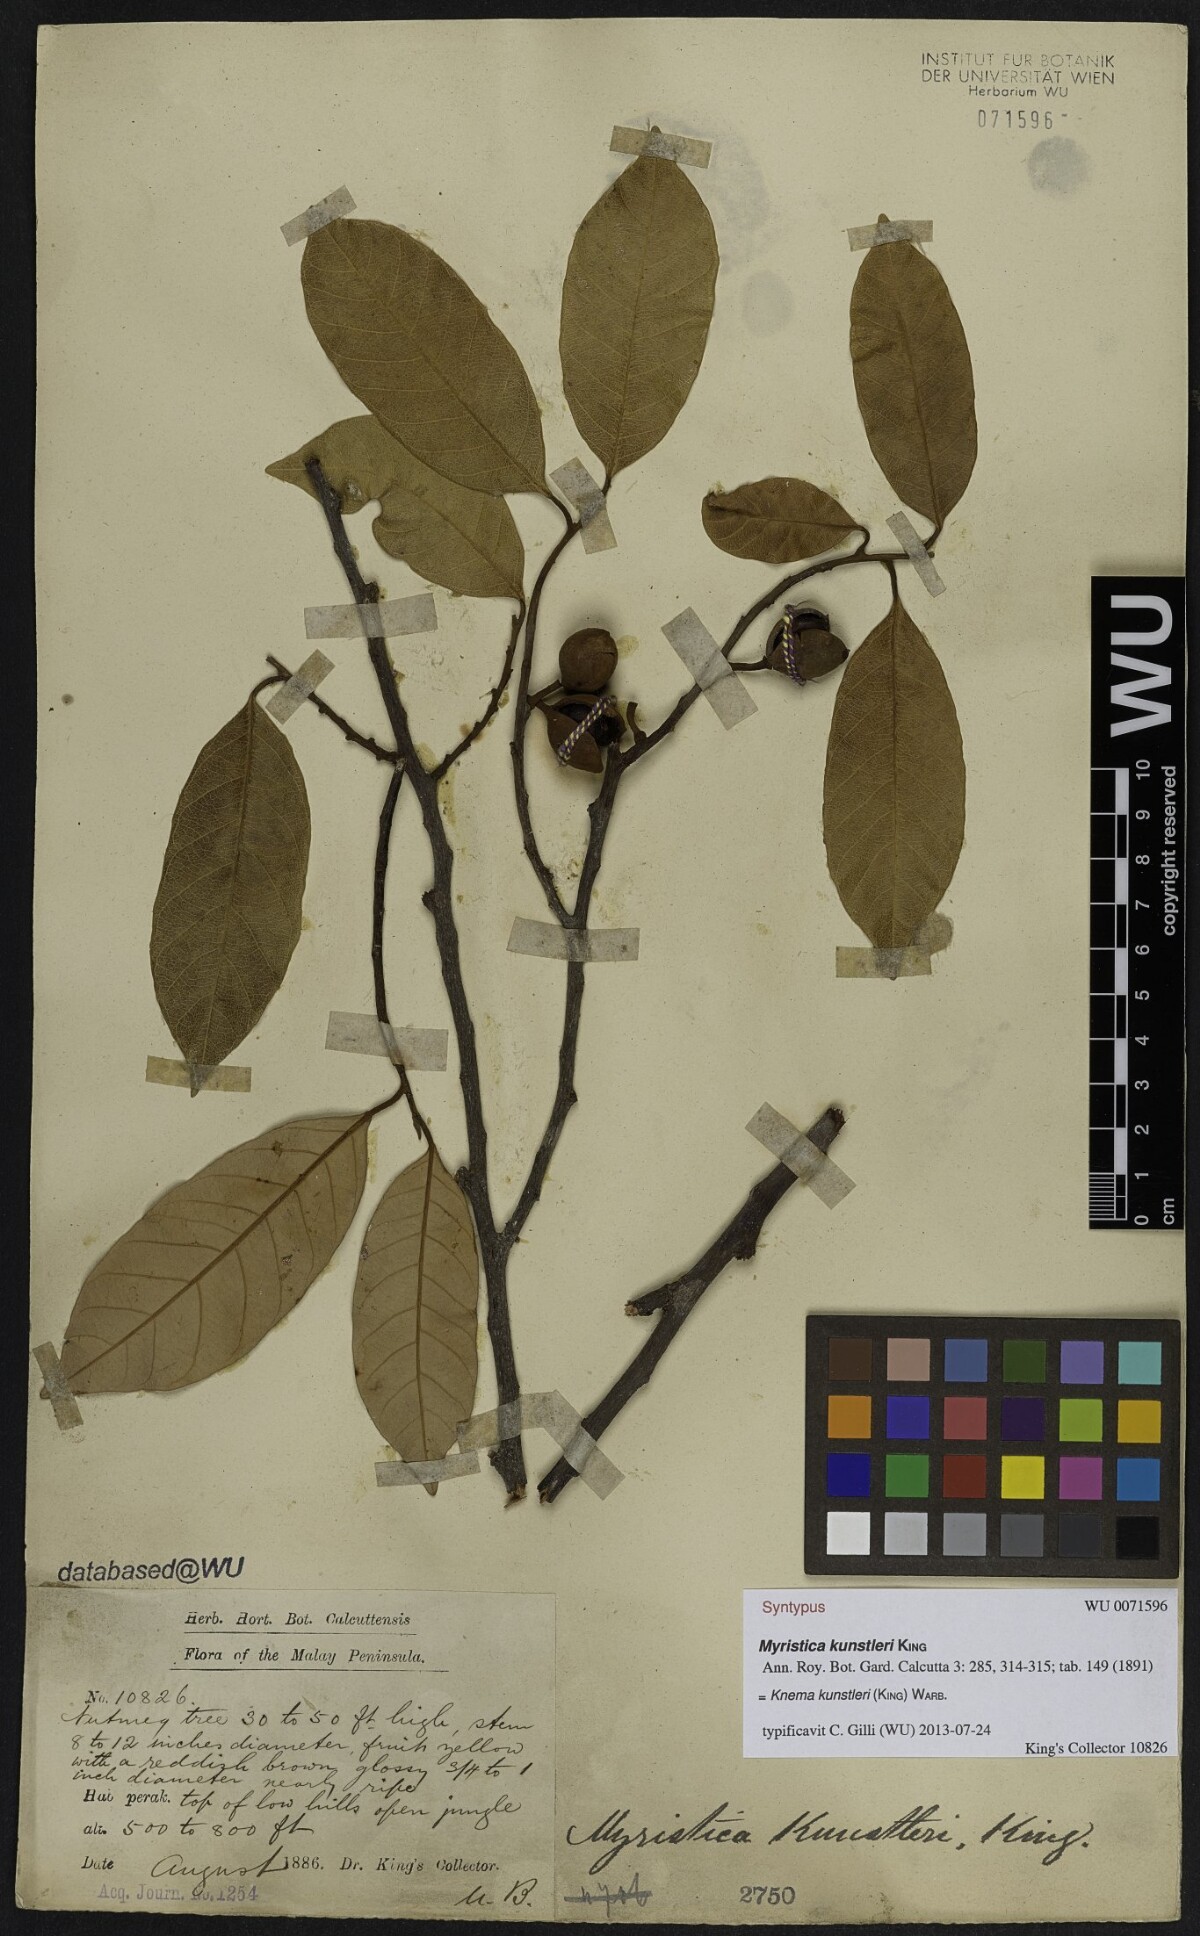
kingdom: Plantae
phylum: Tracheophyta
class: Magnoliopsida
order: Magnoliales
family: Myristicaceae
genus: Knema
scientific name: Knema kunstleri
